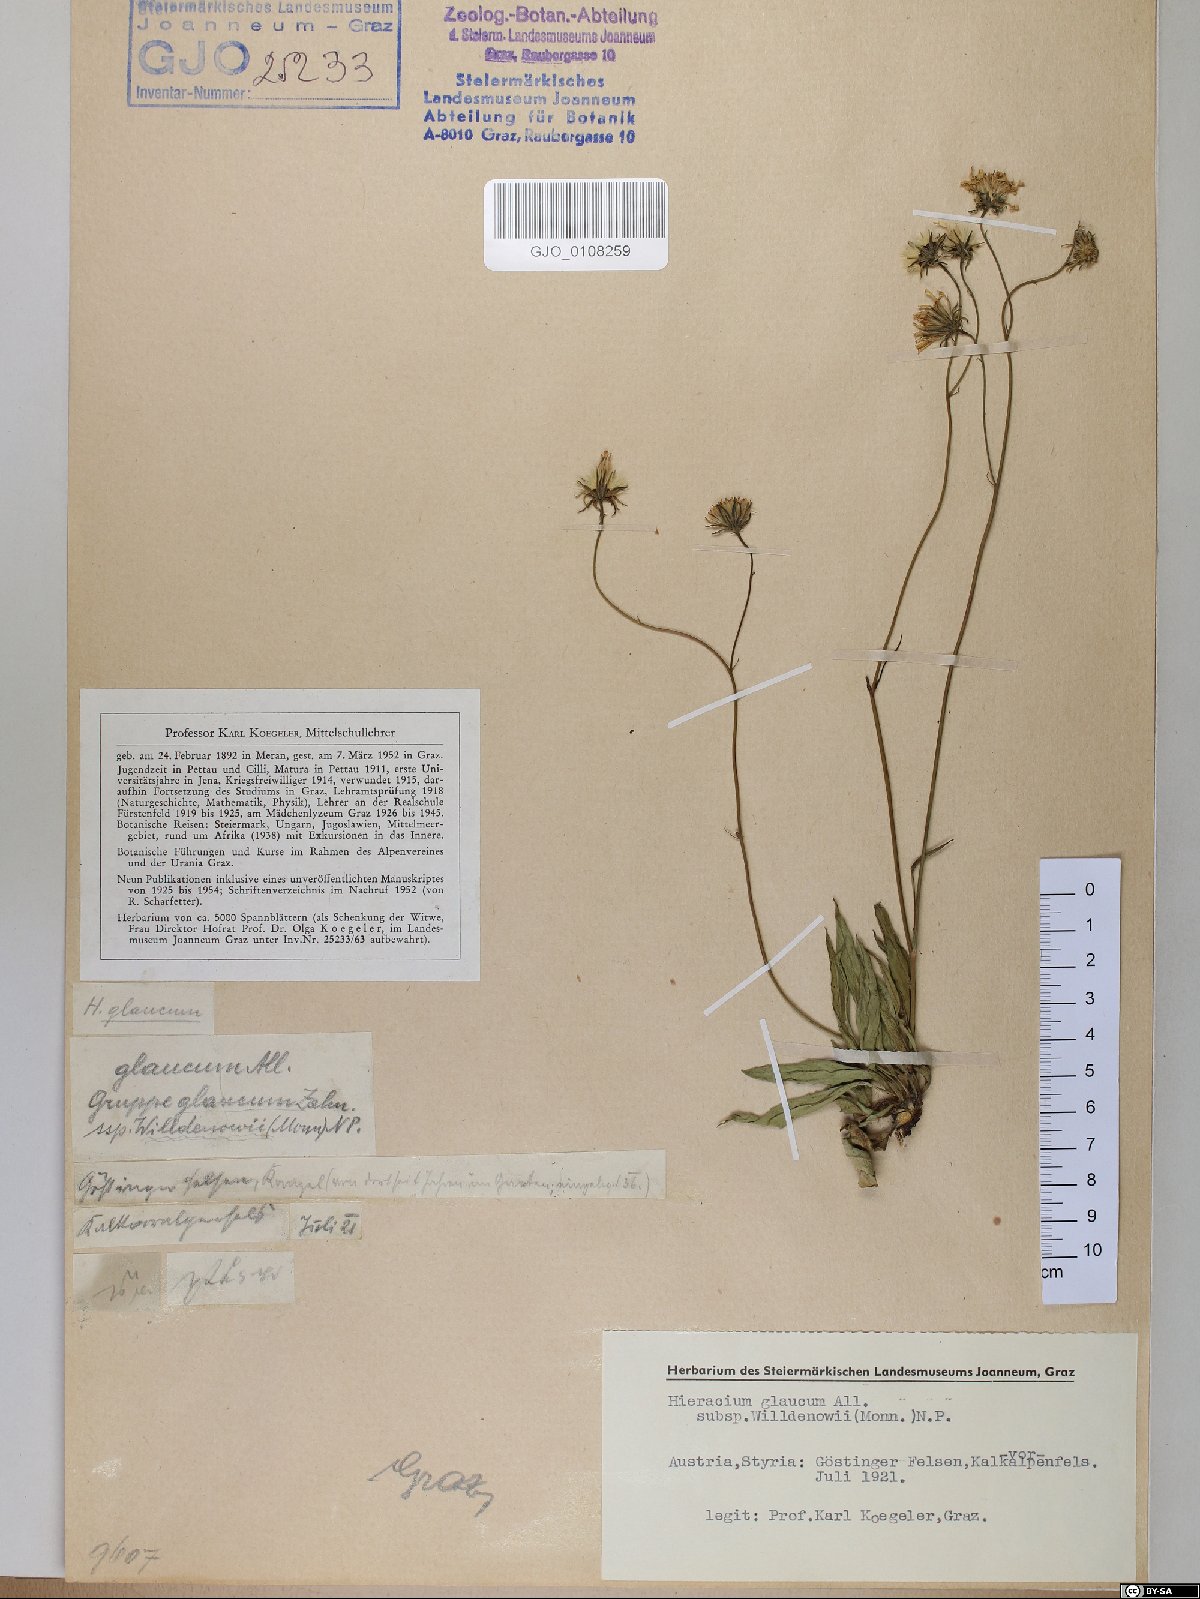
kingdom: Plantae
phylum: Tracheophyta
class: Magnoliopsida
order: Asterales
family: Asteraceae
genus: Hieracium
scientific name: Hieracium glaucum
